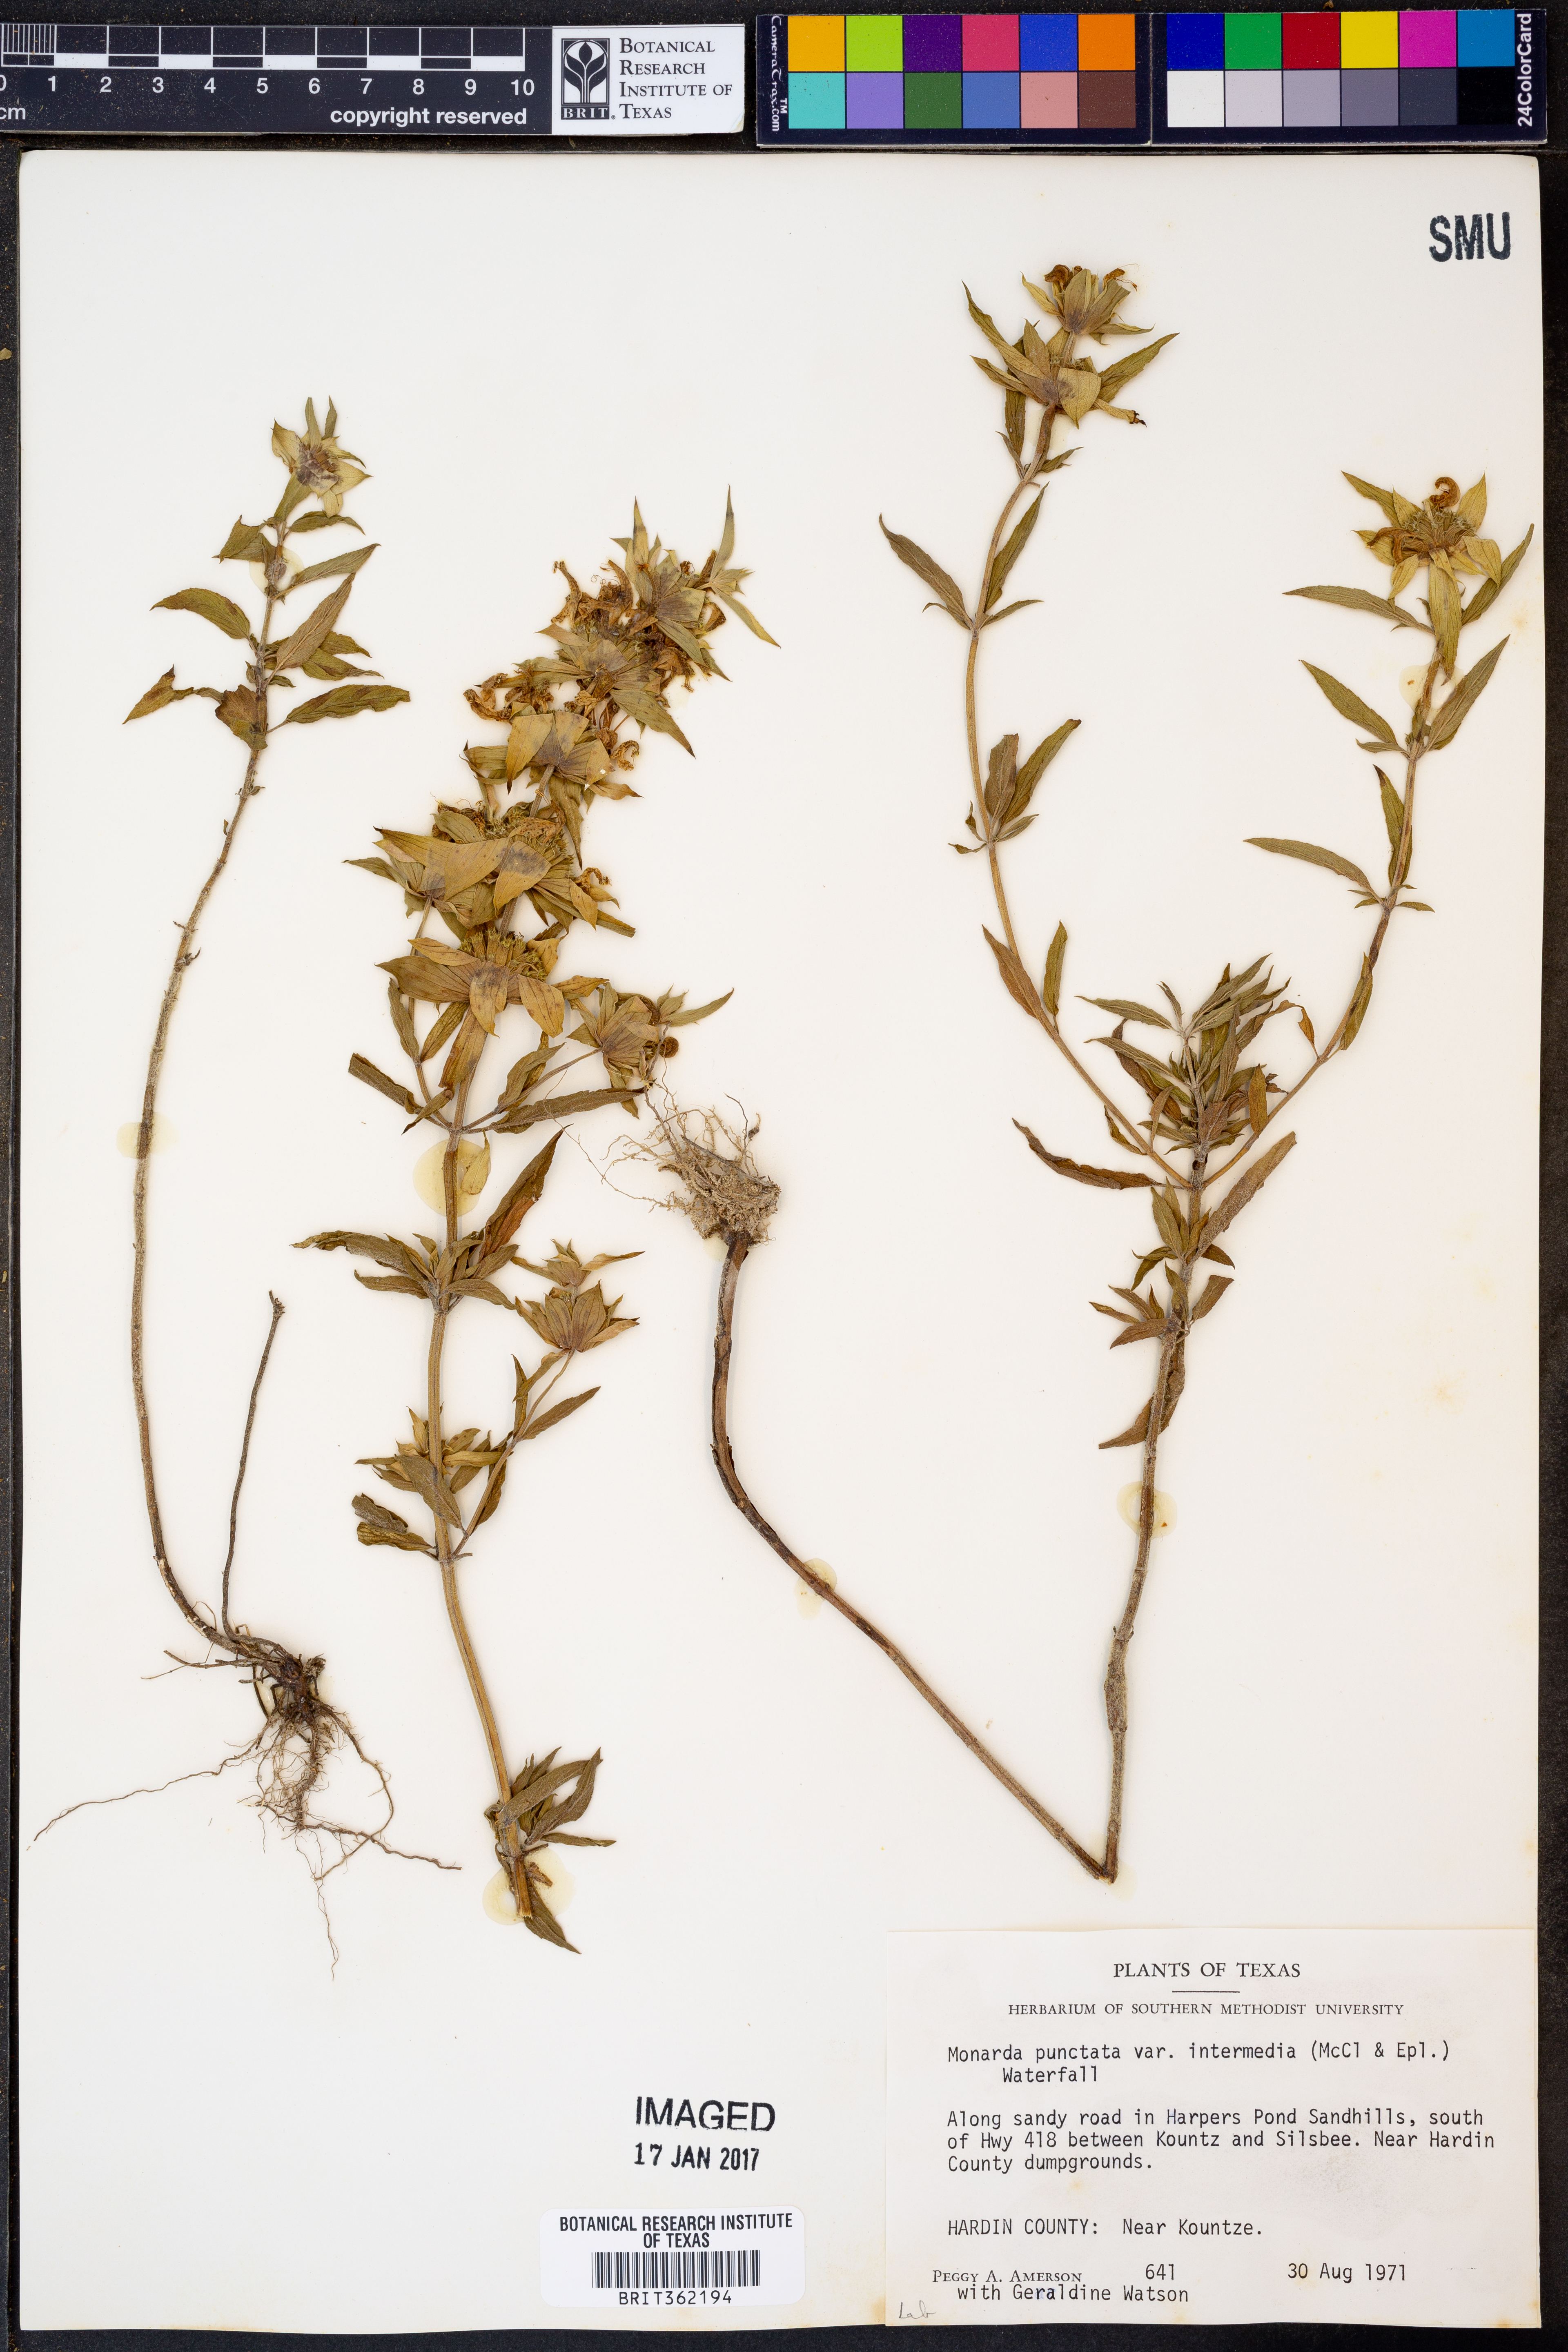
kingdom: Plantae
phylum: Tracheophyta
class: Magnoliopsida
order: Lamiales
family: Lamiaceae
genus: Monarda
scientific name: Monarda punctata
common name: Dotted monarda
